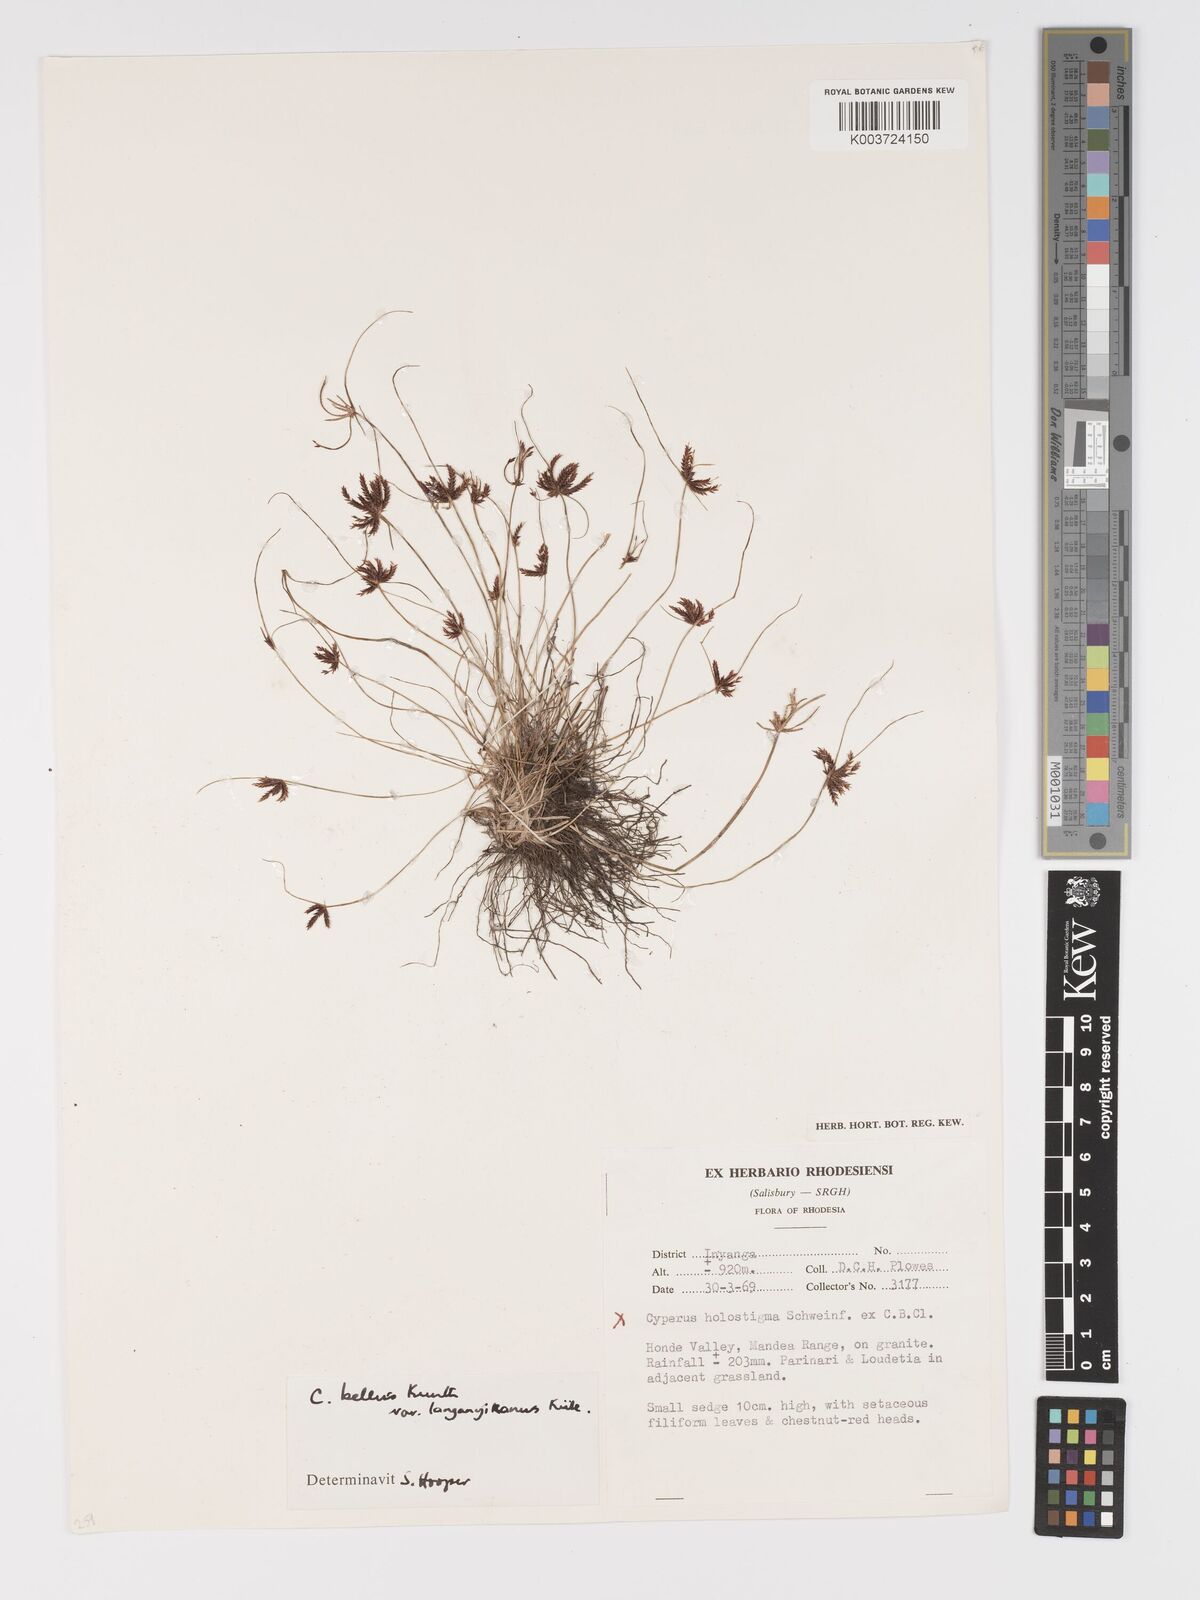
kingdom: Plantae
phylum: Tracheophyta
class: Liliopsida
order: Poales
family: Cyperaceae
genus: Cyperus
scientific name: Cyperus semitrifidus
